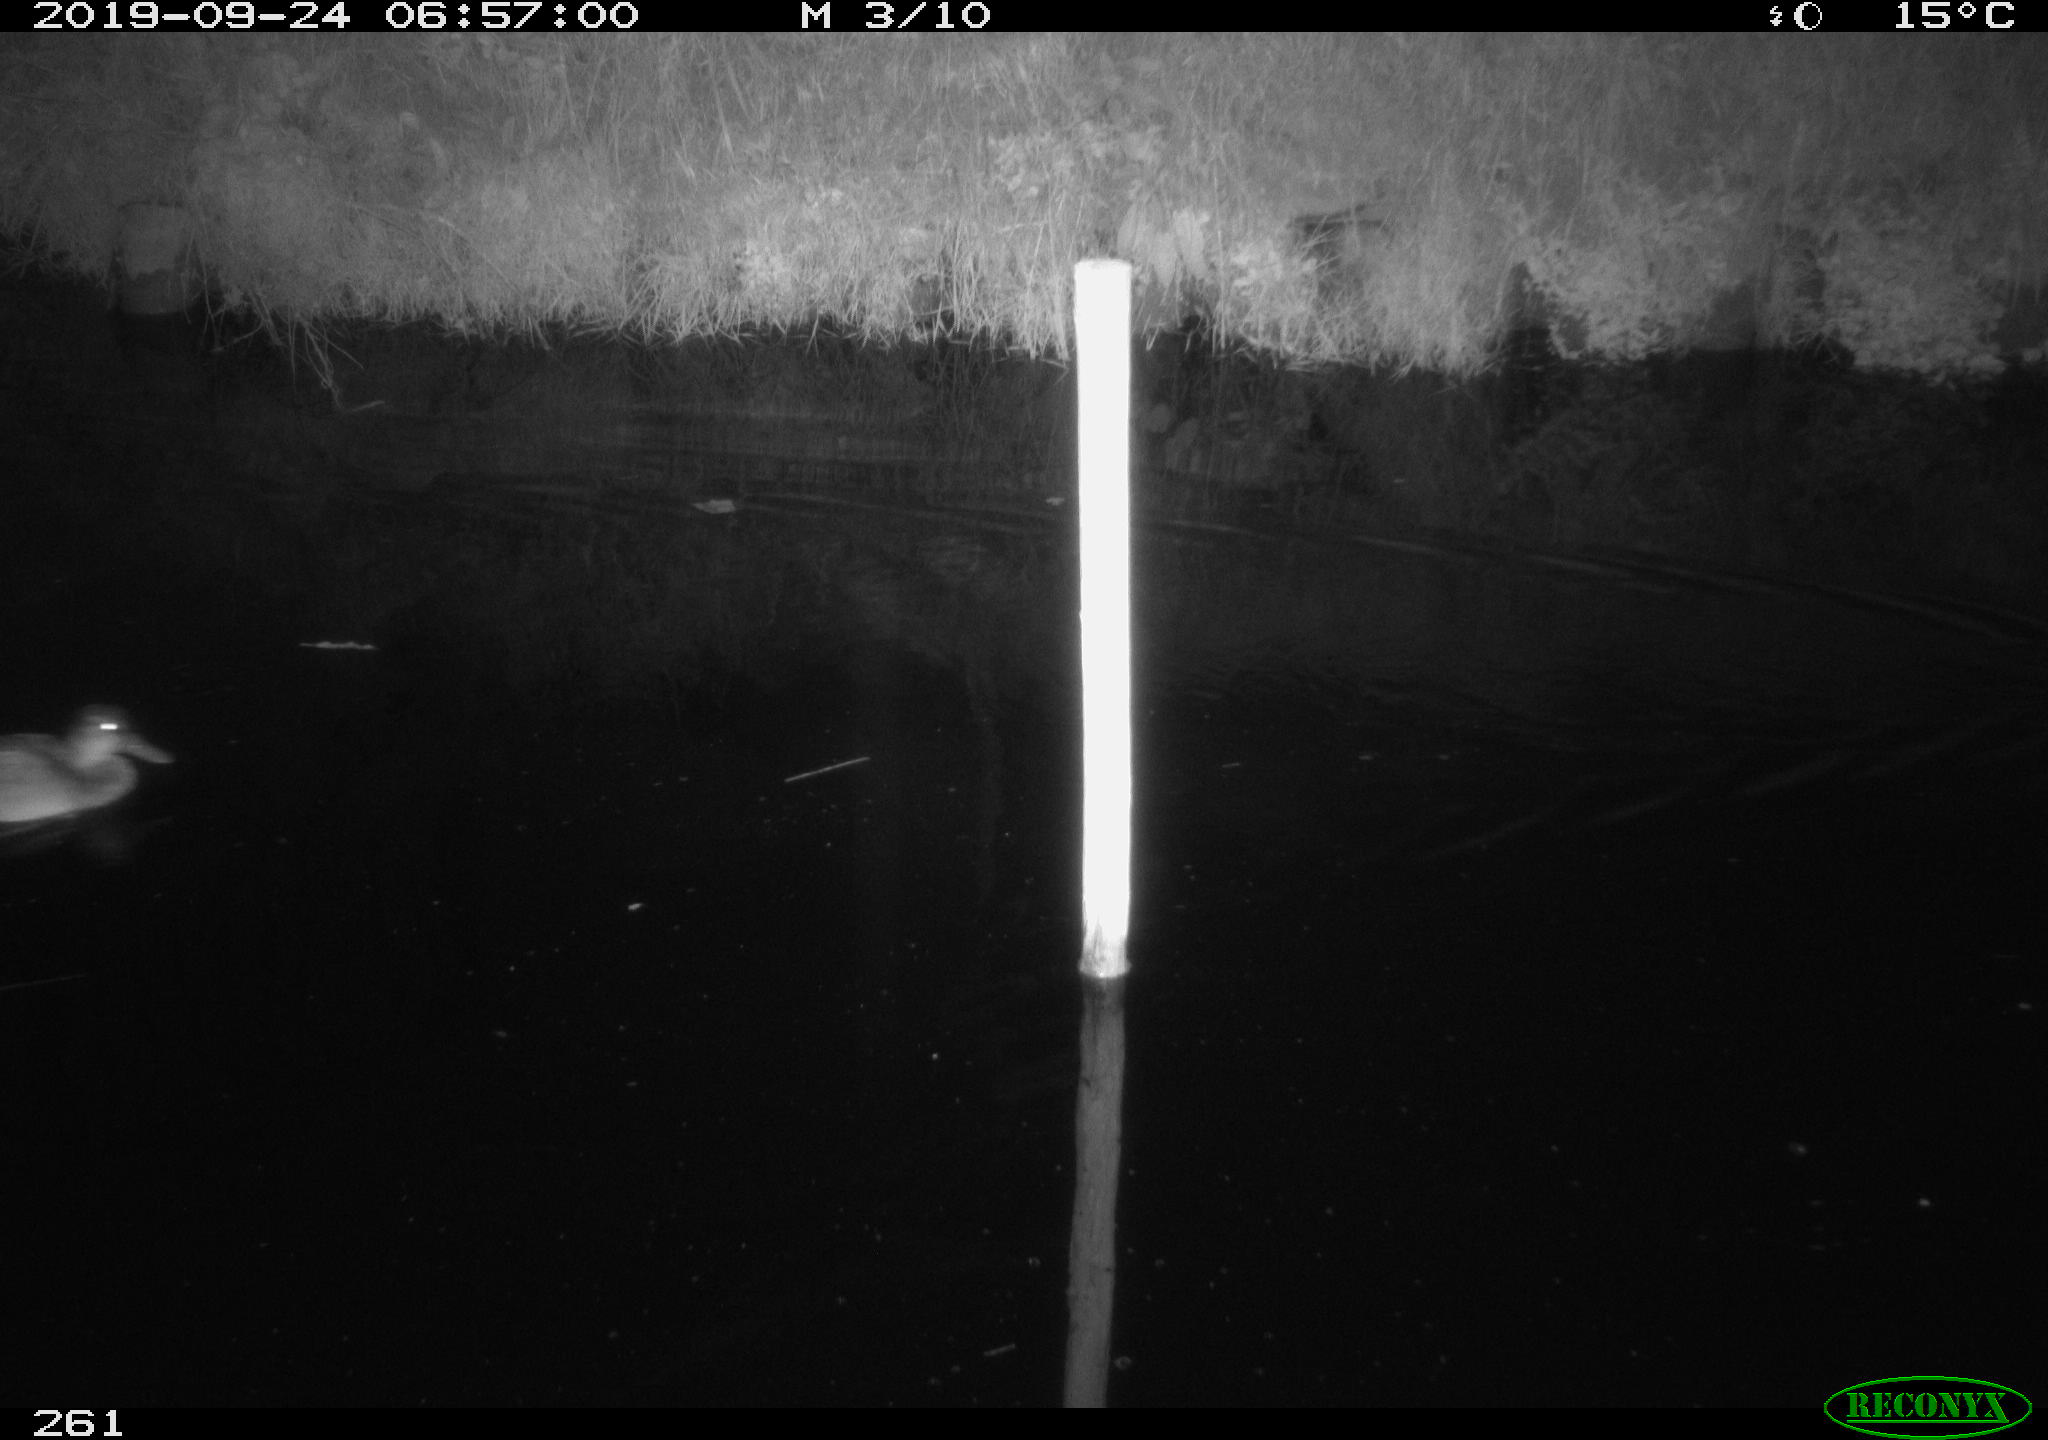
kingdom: Animalia
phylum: Chordata
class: Aves
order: Anseriformes
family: Anatidae
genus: Anas
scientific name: Anas platyrhynchos
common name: Mallard
